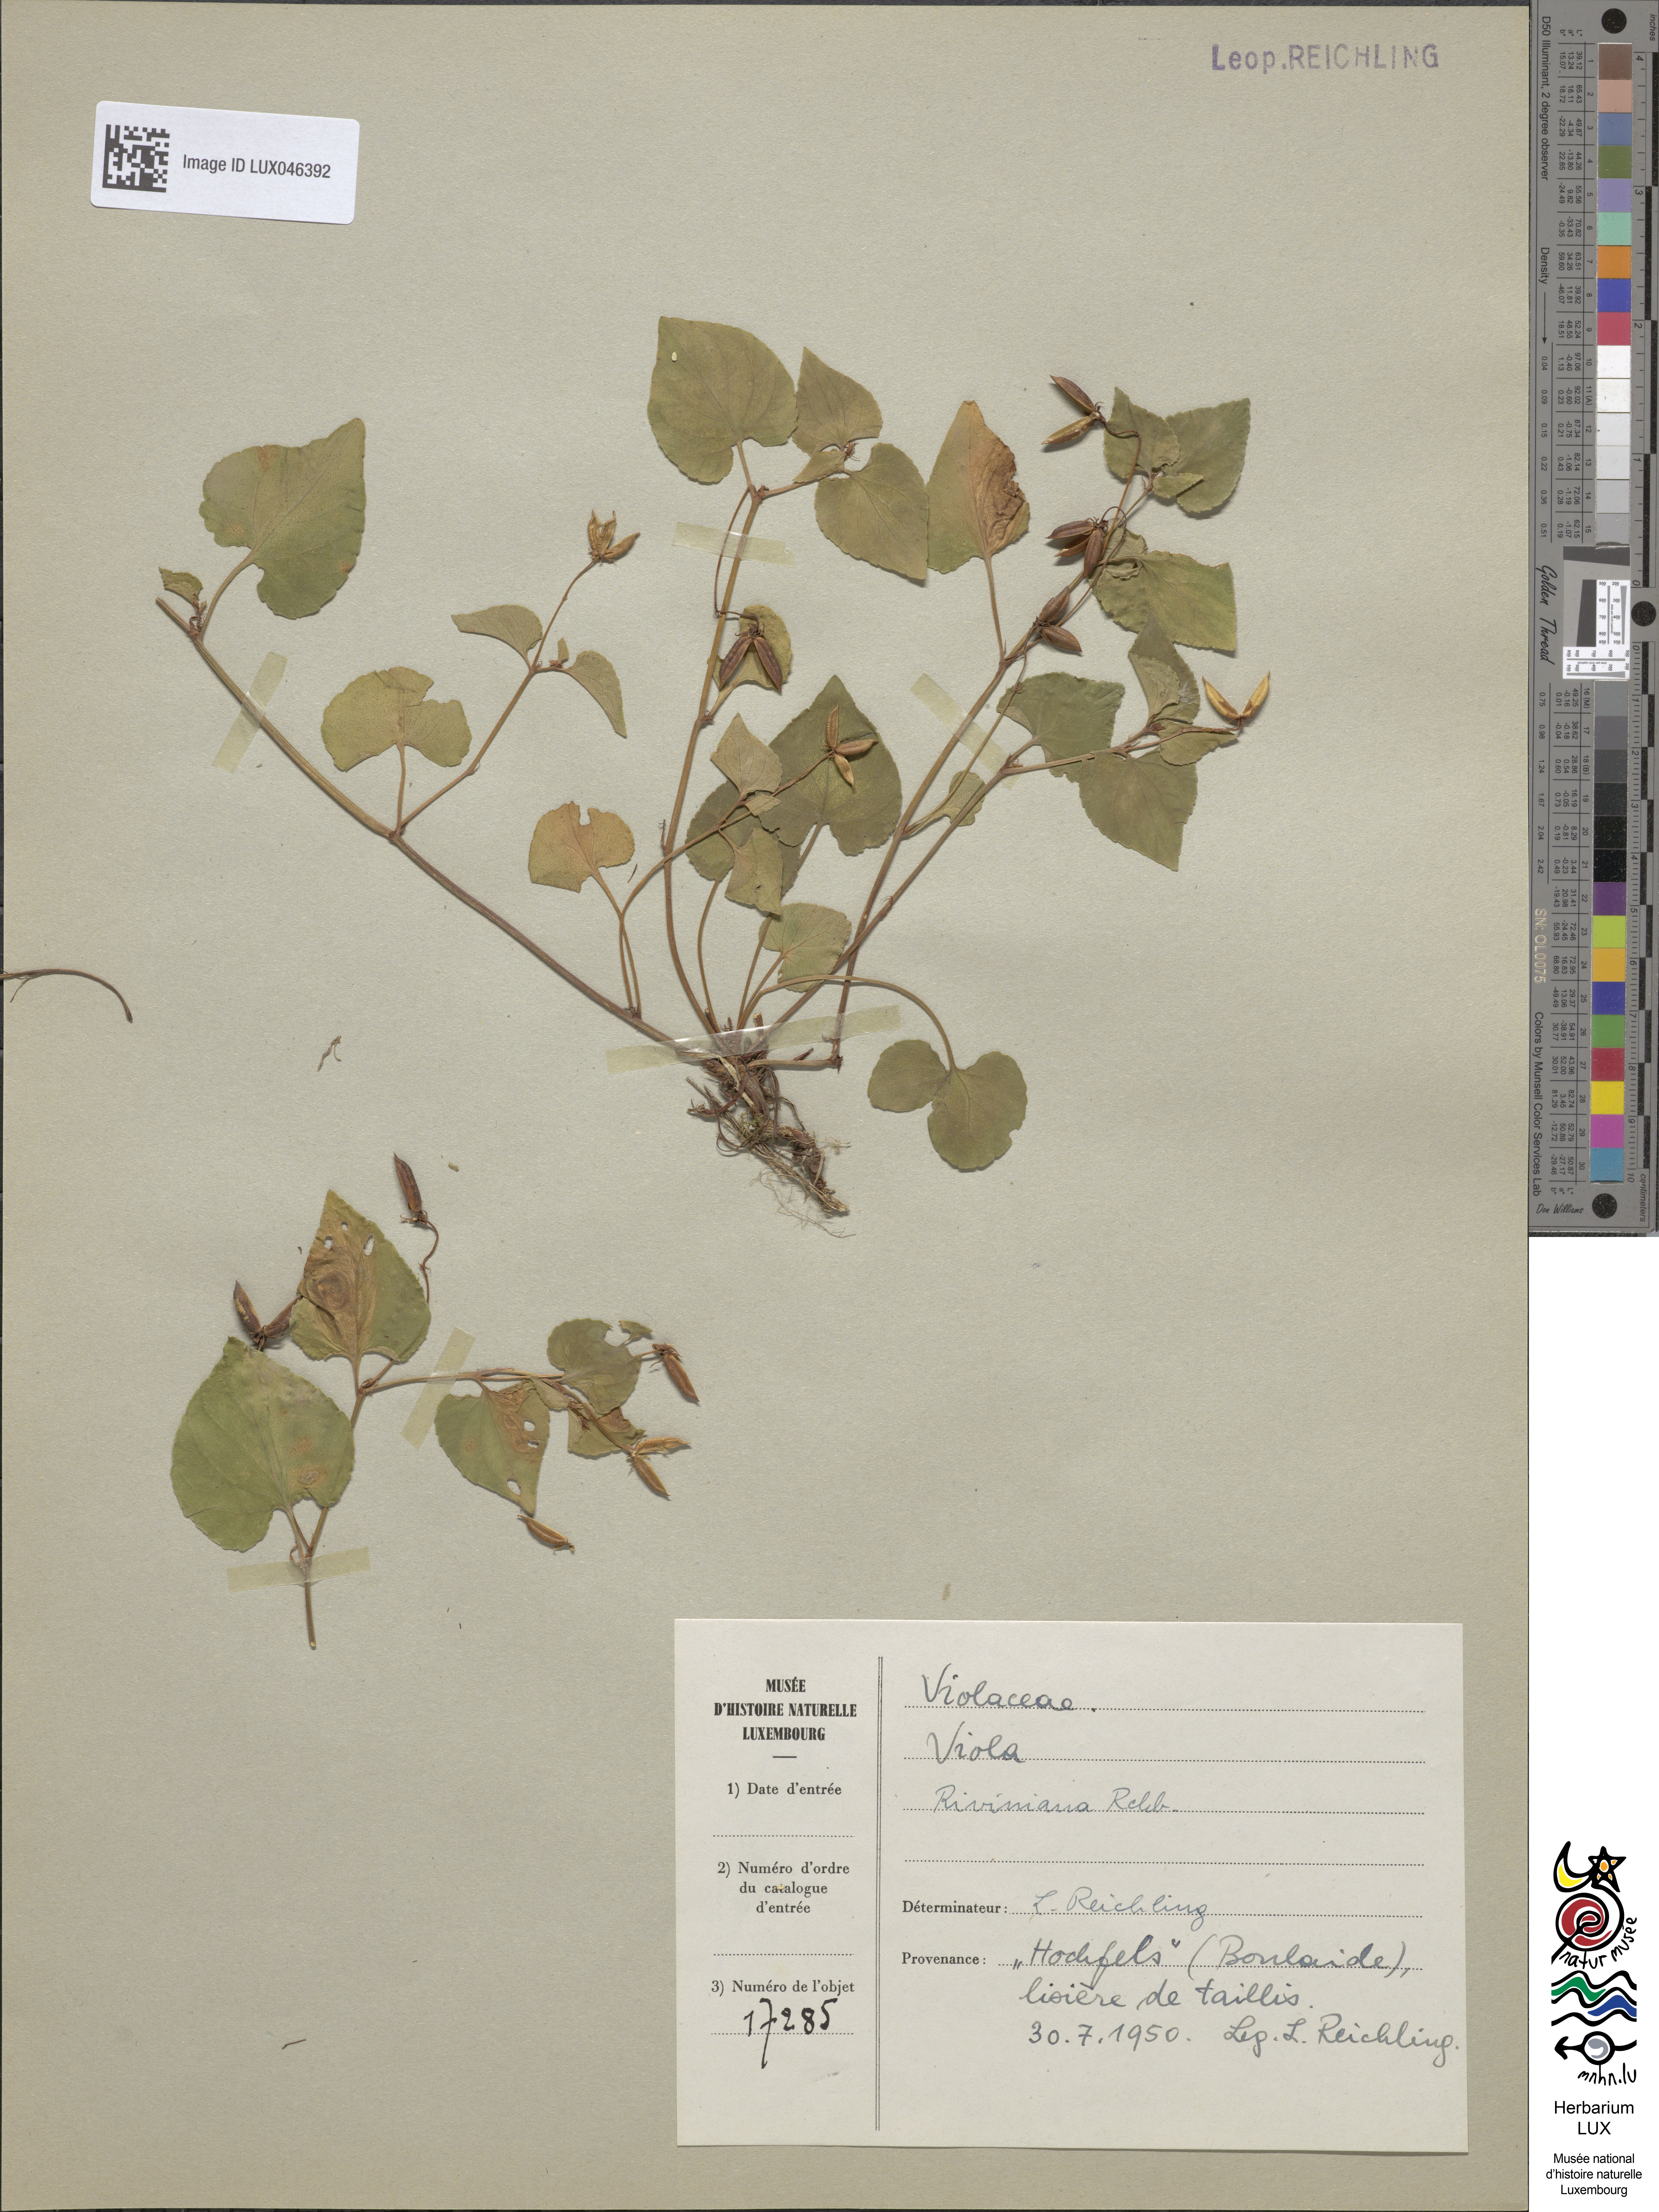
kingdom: Plantae
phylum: Tracheophyta
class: Magnoliopsida
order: Malpighiales
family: Violaceae
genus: Viola
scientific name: Viola riviniana
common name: Common dog-violet
